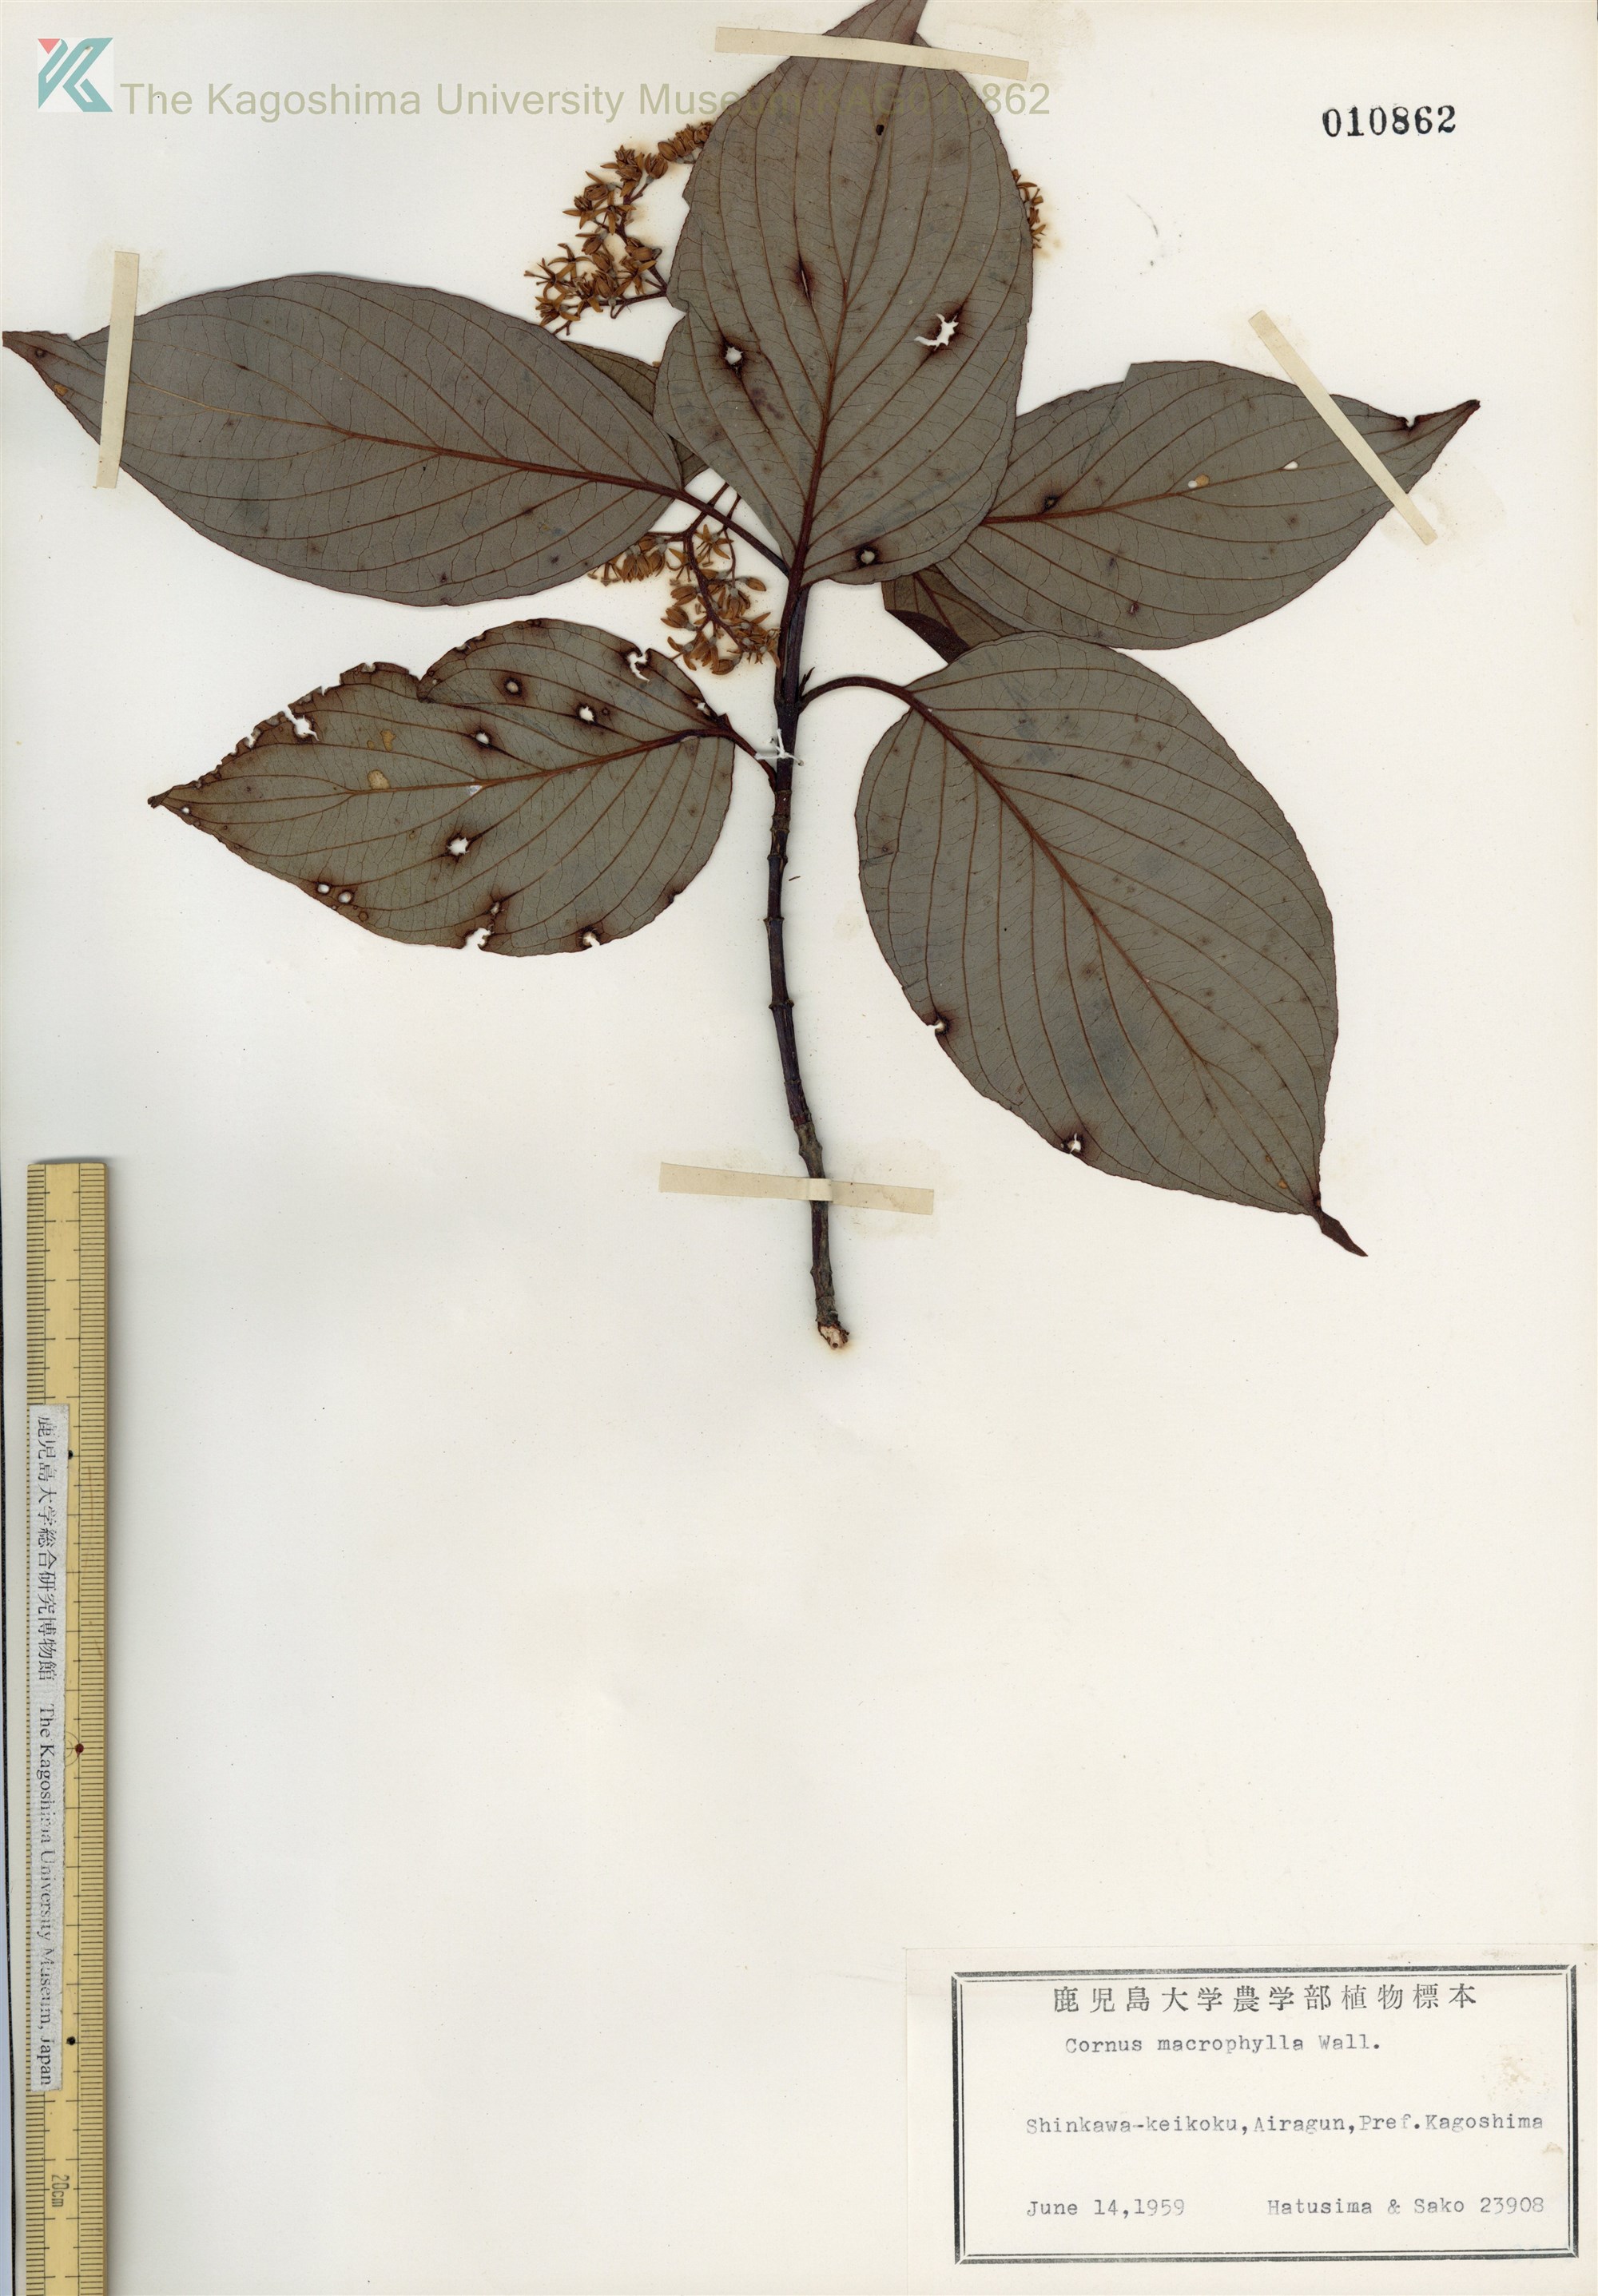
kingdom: Plantae
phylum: Tracheophyta
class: Magnoliopsida
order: Cornales
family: Cornaceae
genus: Cornus
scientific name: Cornus macrophylla
